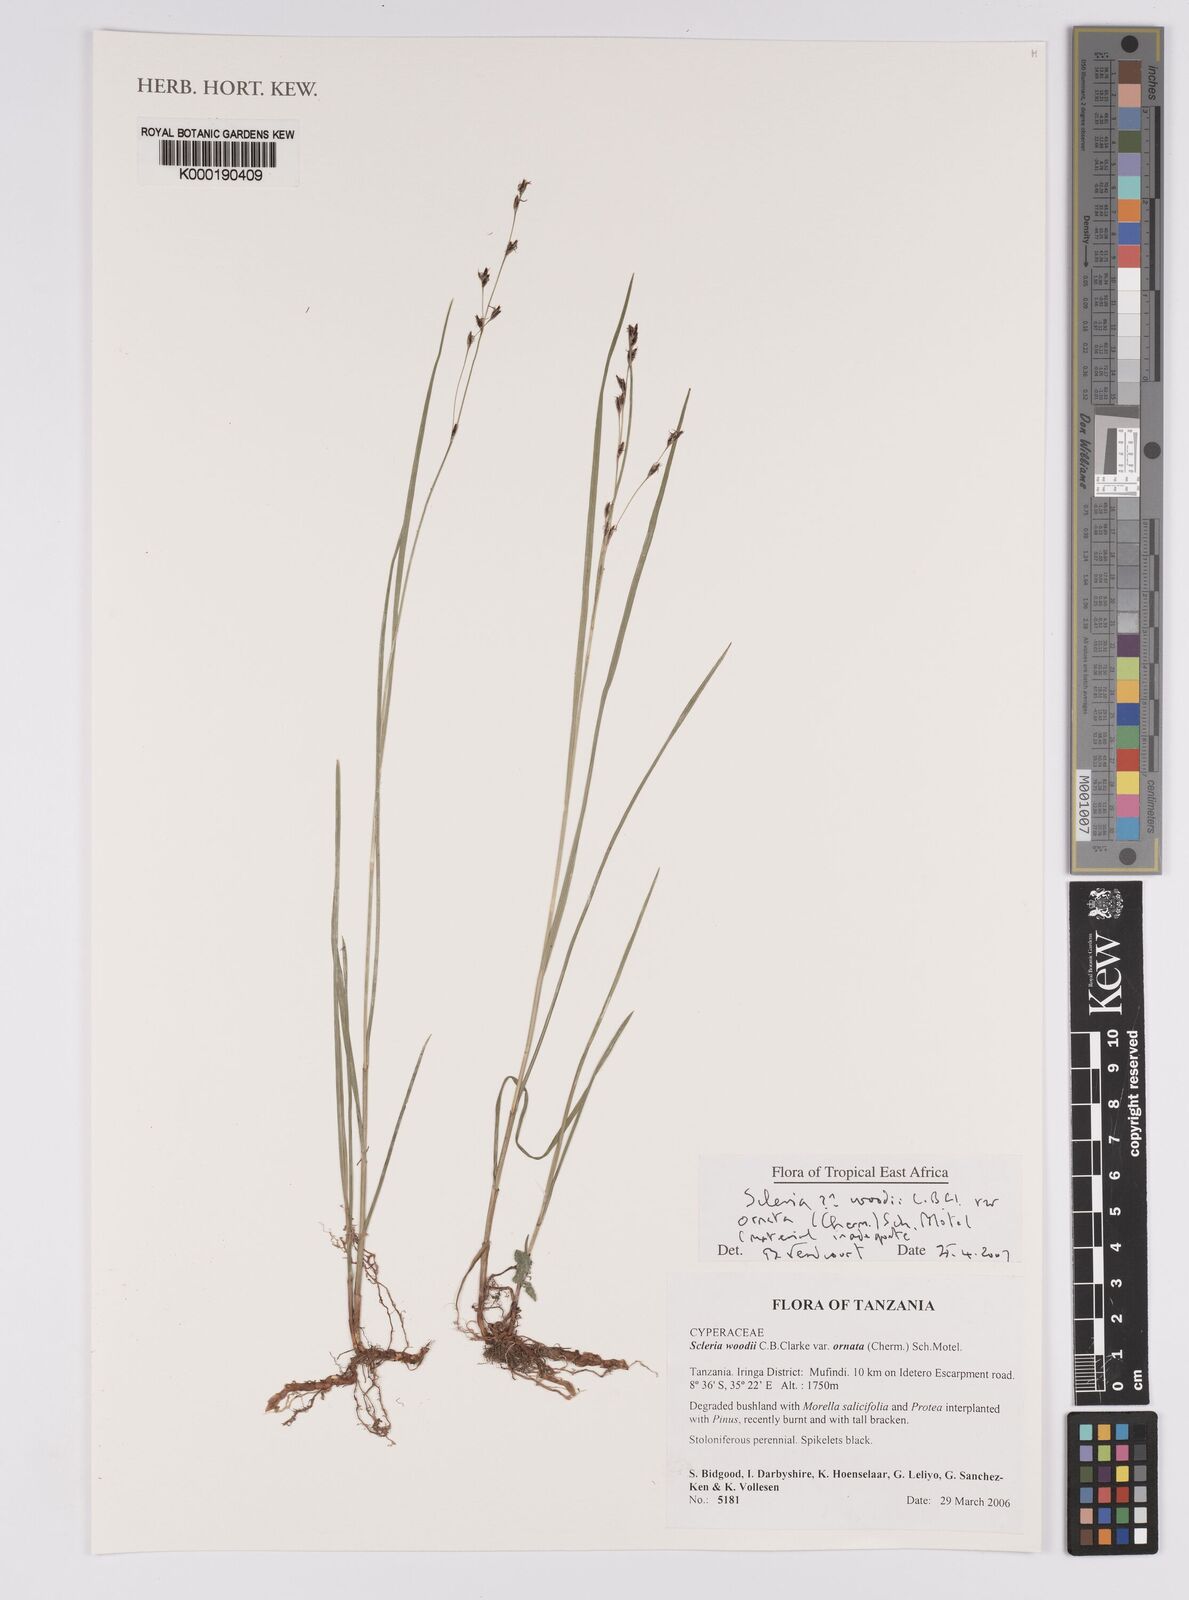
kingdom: Plantae
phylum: Tracheophyta
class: Liliopsida
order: Poales
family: Cyperaceae
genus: Scleria
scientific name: Scleria woodii
